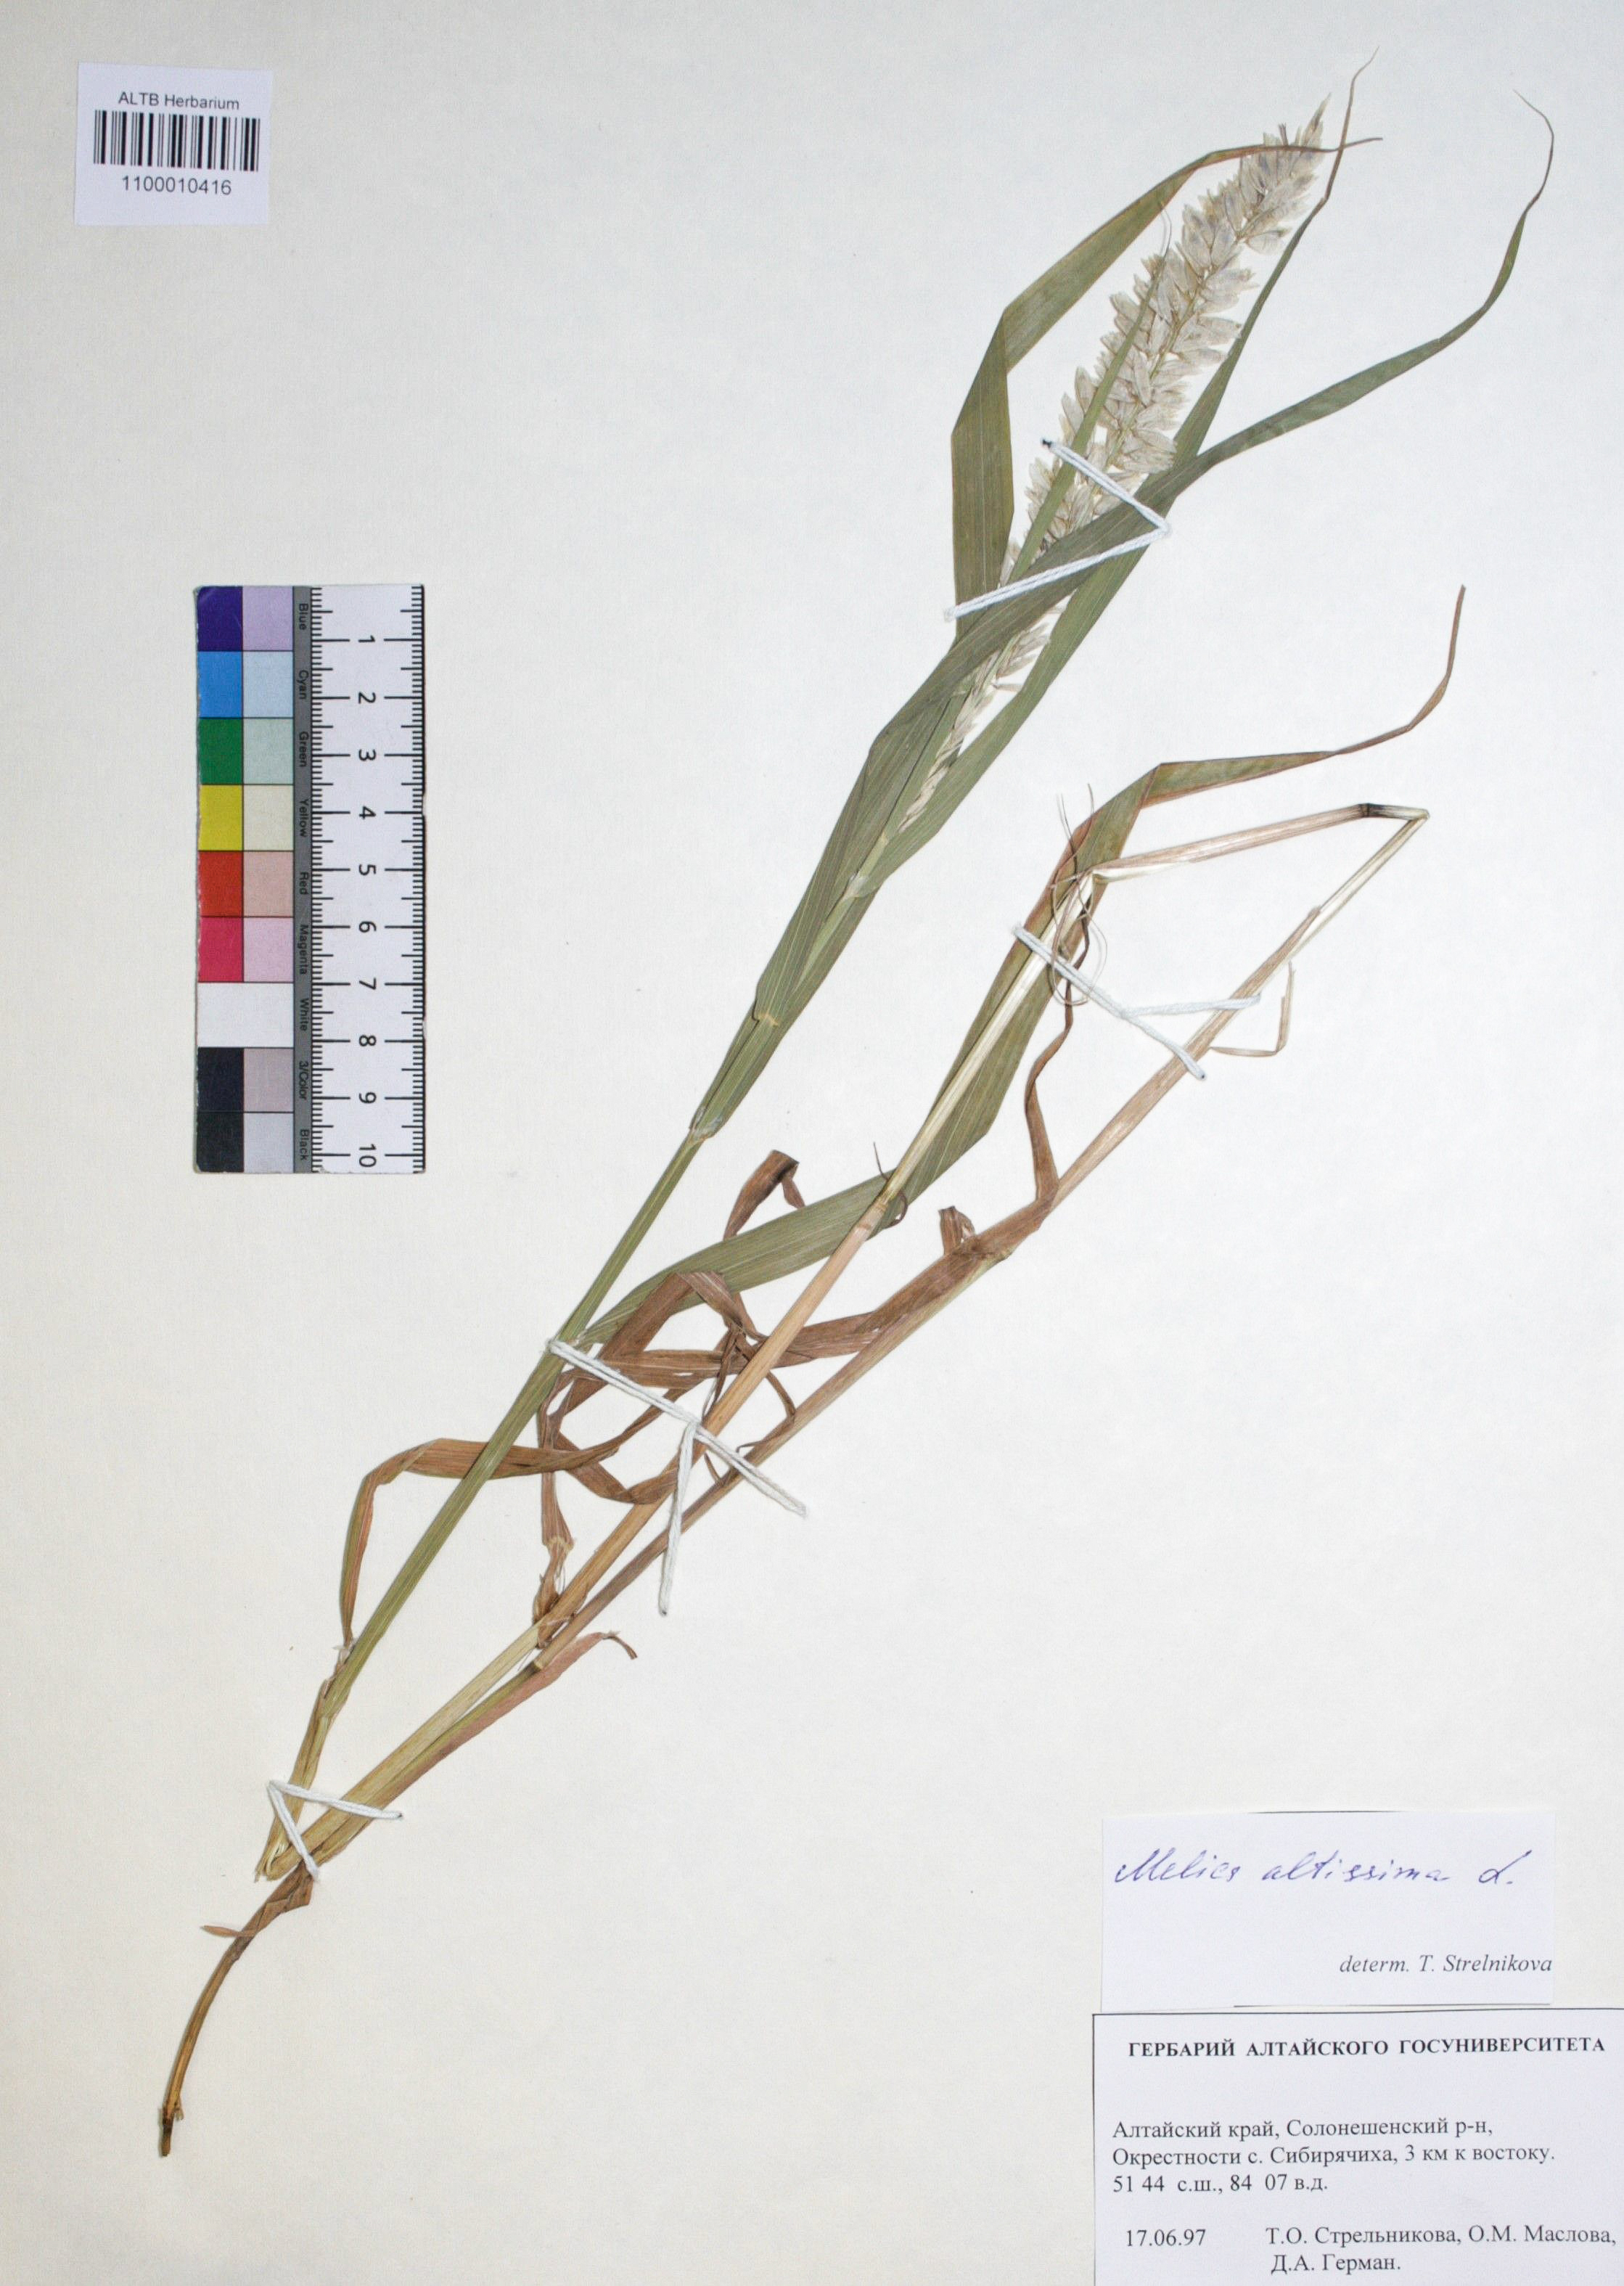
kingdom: Plantae
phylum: Tracheophyta
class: Liliopsida
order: Poales
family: Poaceae
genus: Melica
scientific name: Melica altissima
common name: Siberian melicgrass
